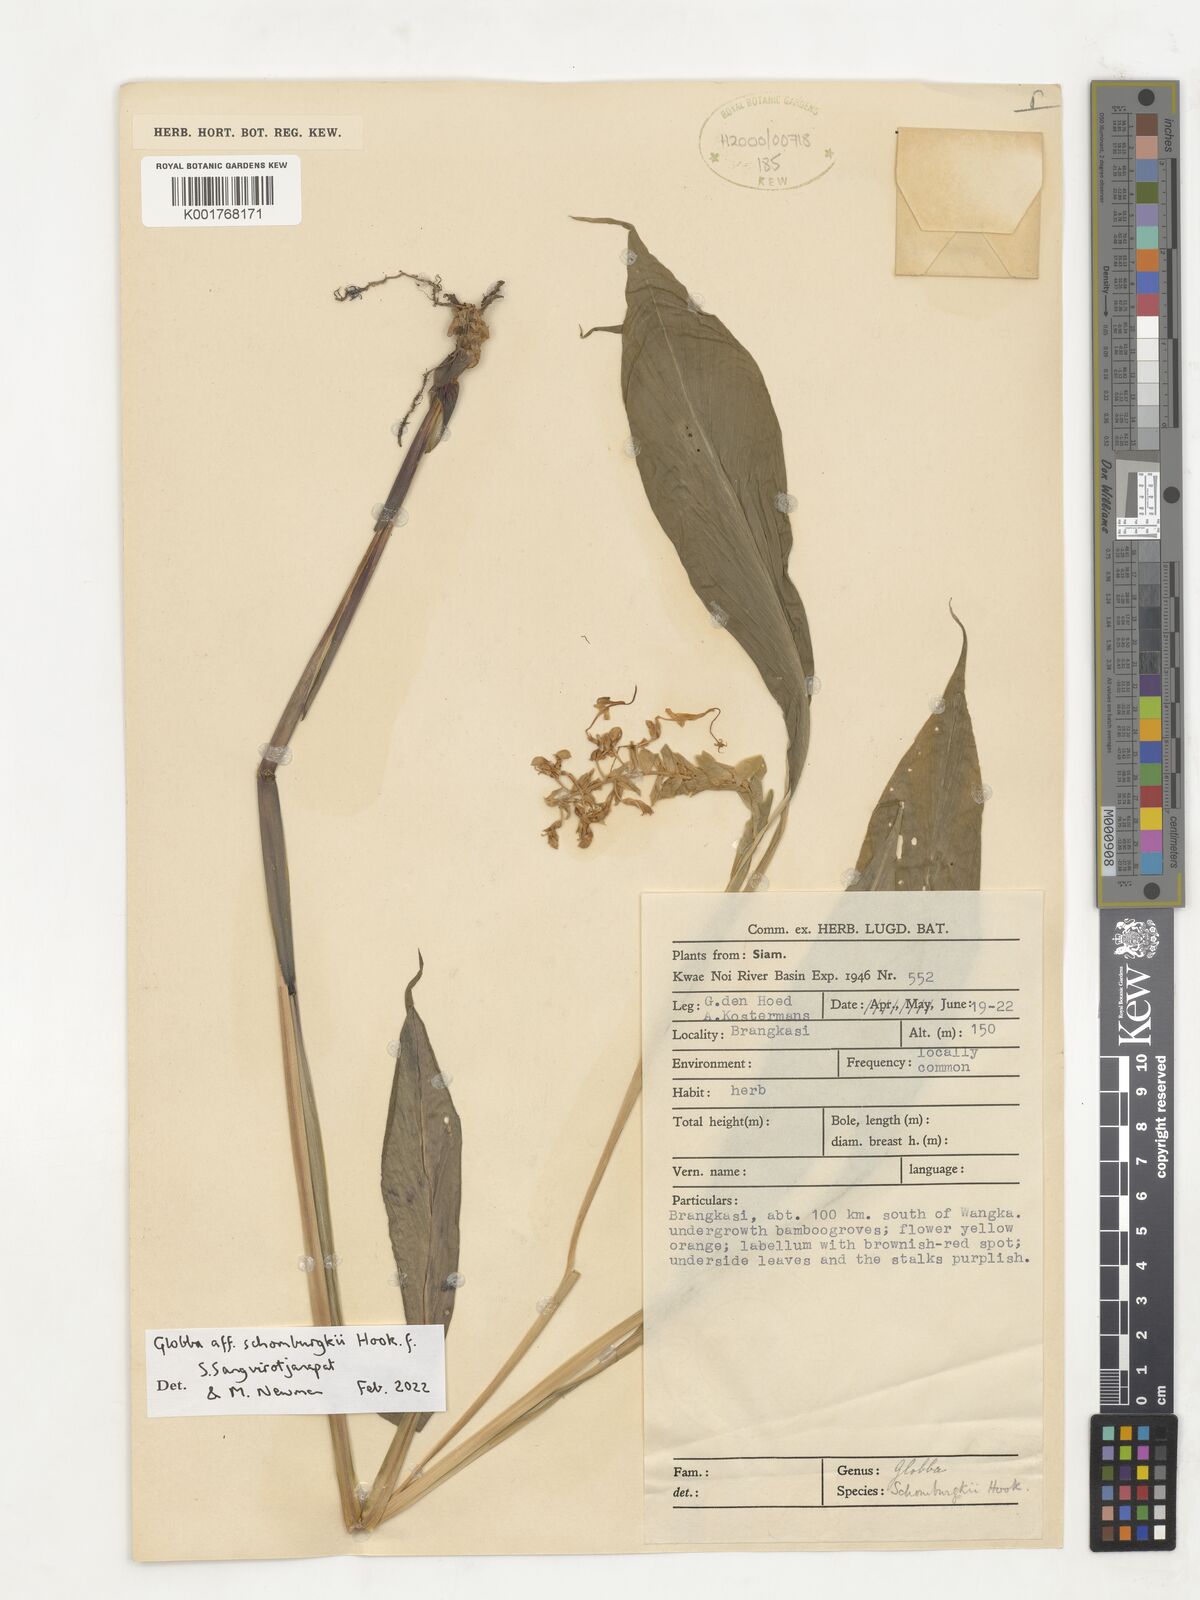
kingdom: Plantae
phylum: Tracheophyta
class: Liliopsida
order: Zingiberales
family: Zingiberaceae
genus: Globba
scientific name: Globba schomburgkii
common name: Dancing girl ginger
